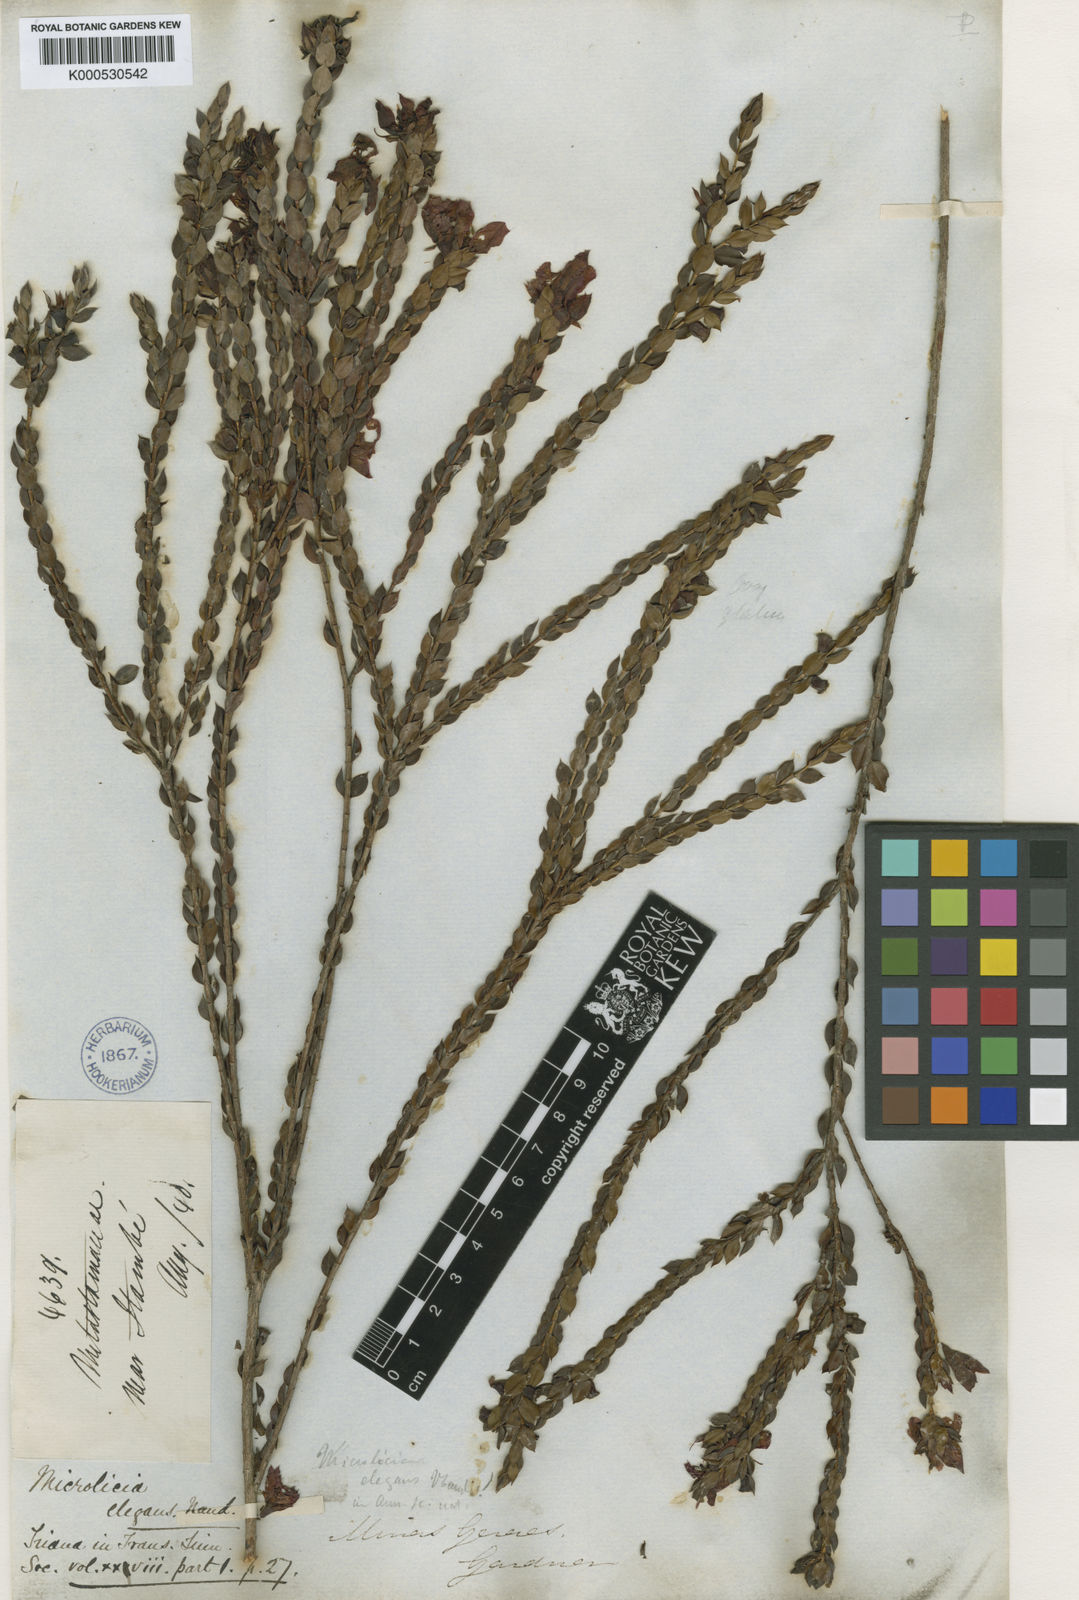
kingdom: Plantae
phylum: Tracheophyta
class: Magnoliopsida
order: Myrtales
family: Melastomataceae
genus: Microlicia
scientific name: Microlicia elegans
